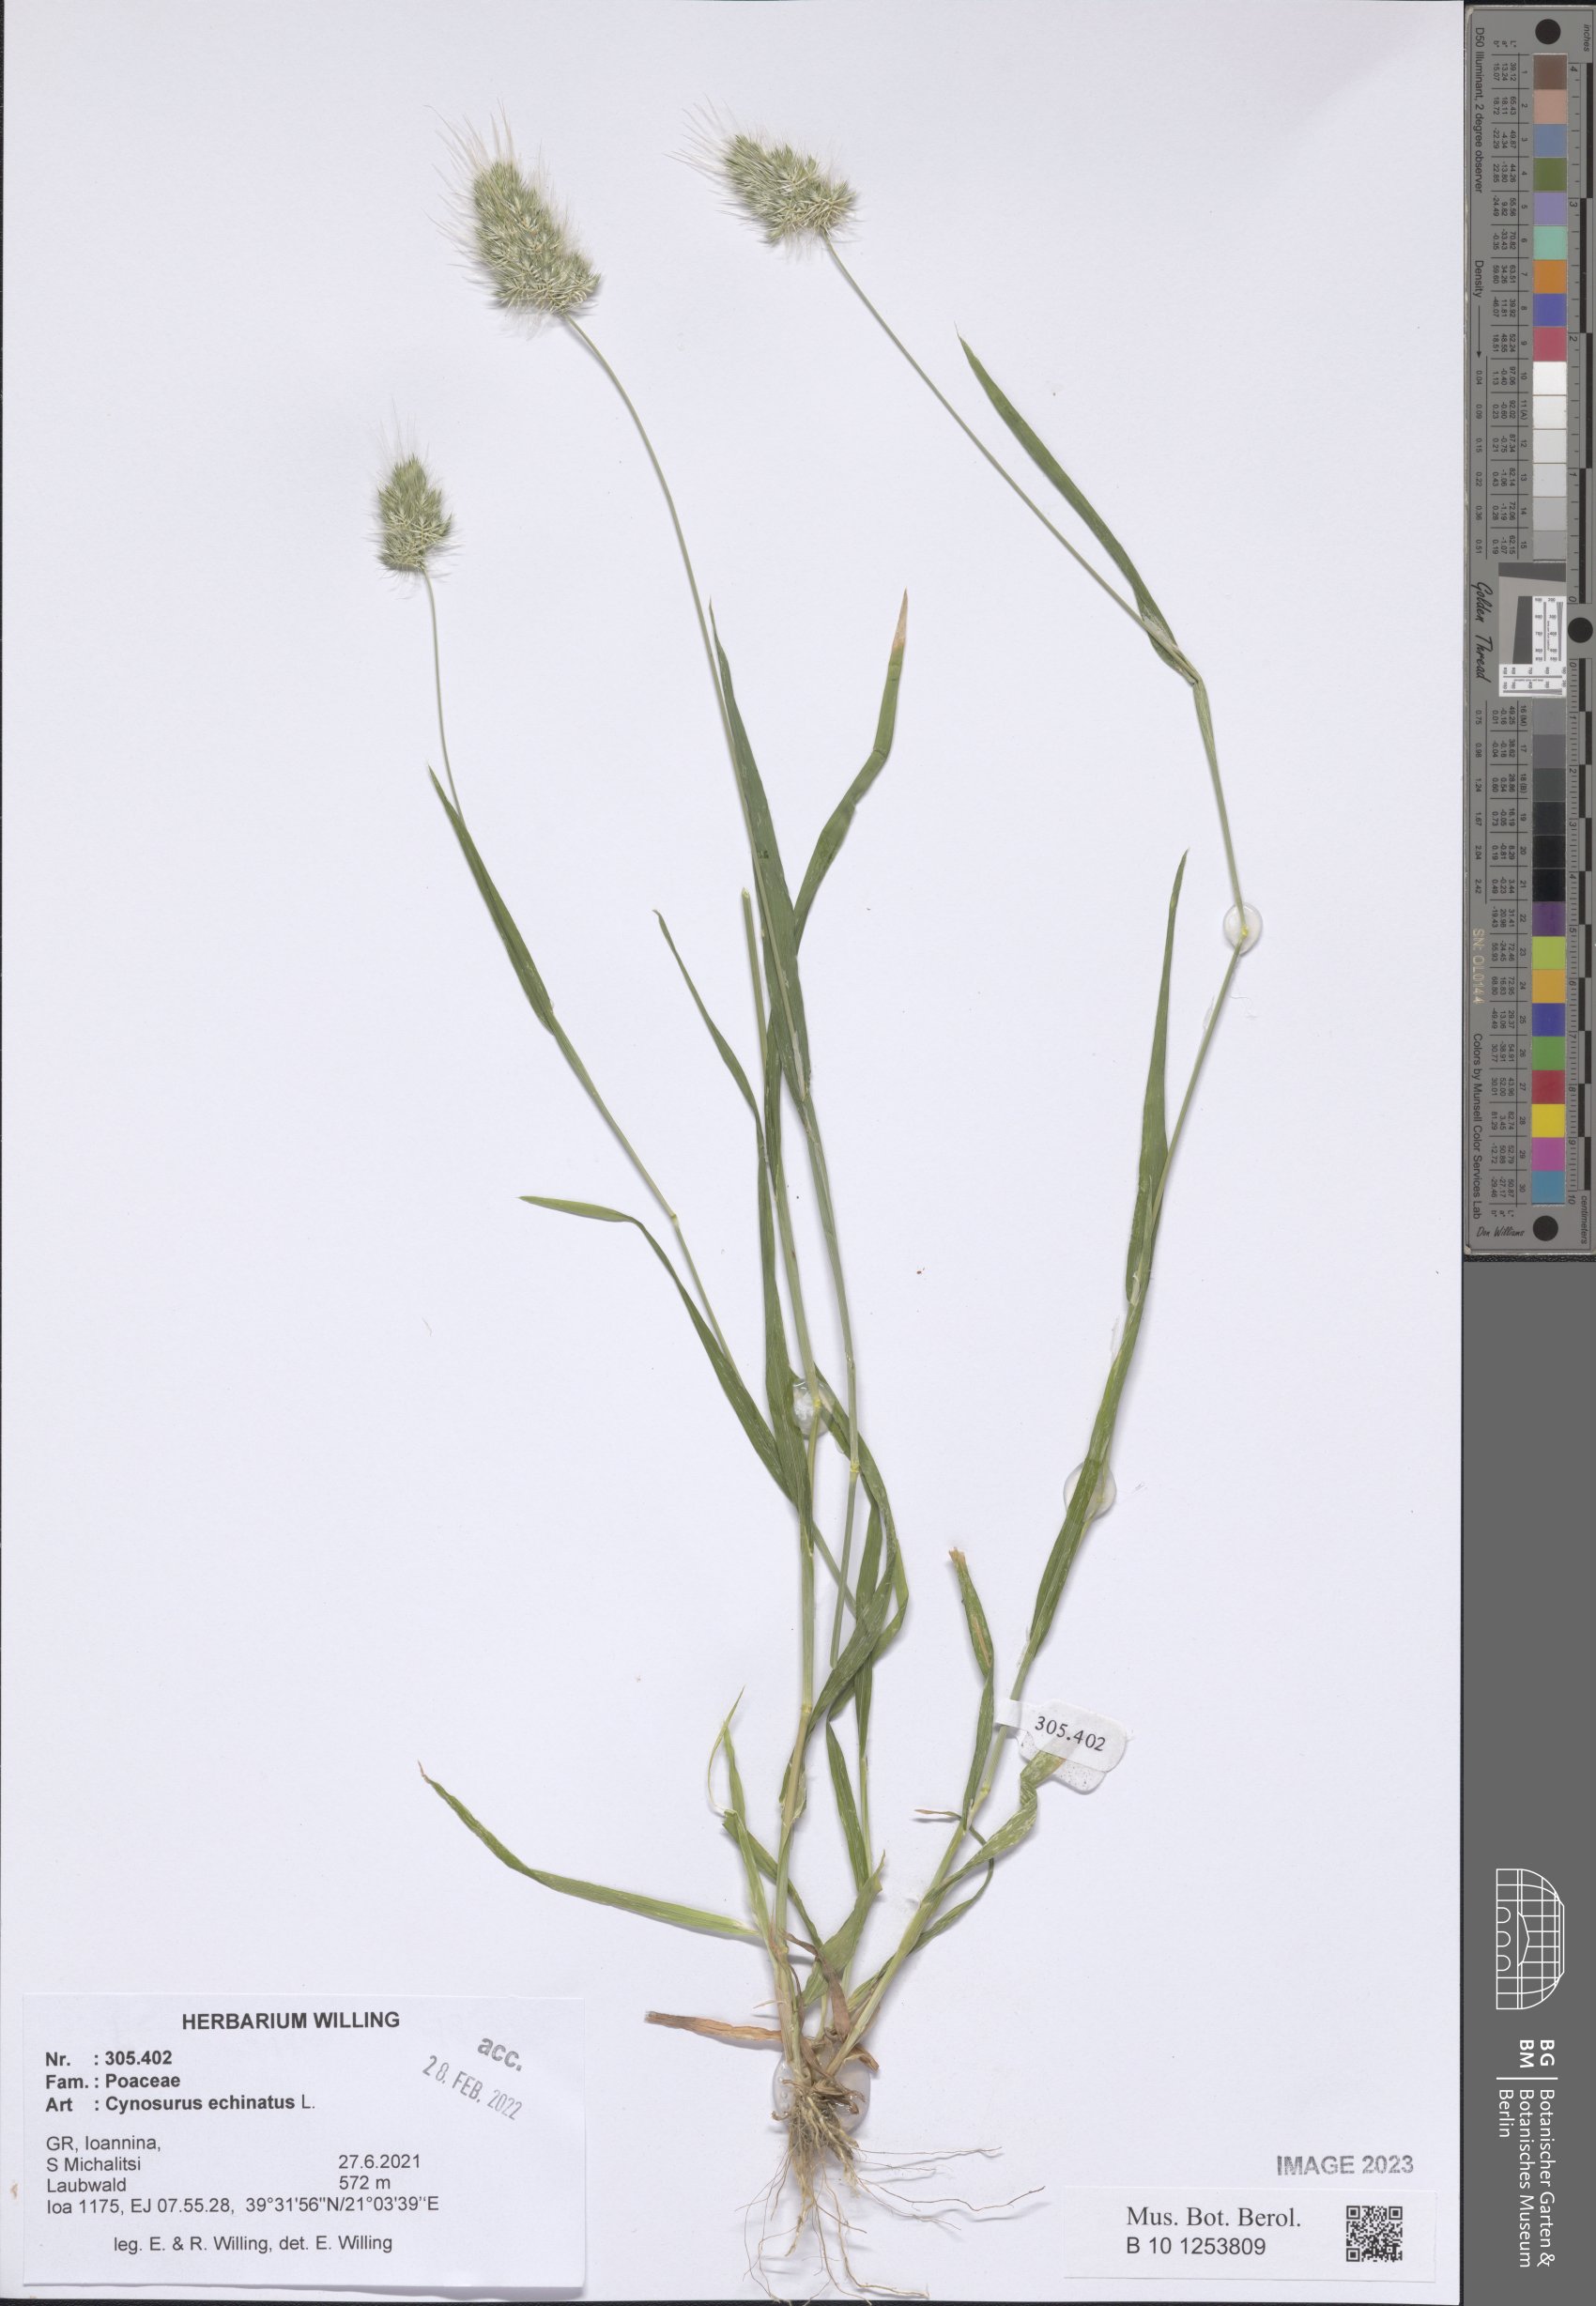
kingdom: Plantae
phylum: Tracheophyta
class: Liliopsida
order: Poales
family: Poaceae
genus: Cynosurus
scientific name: Cynosurus echinatus
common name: Rough dog's-tail
